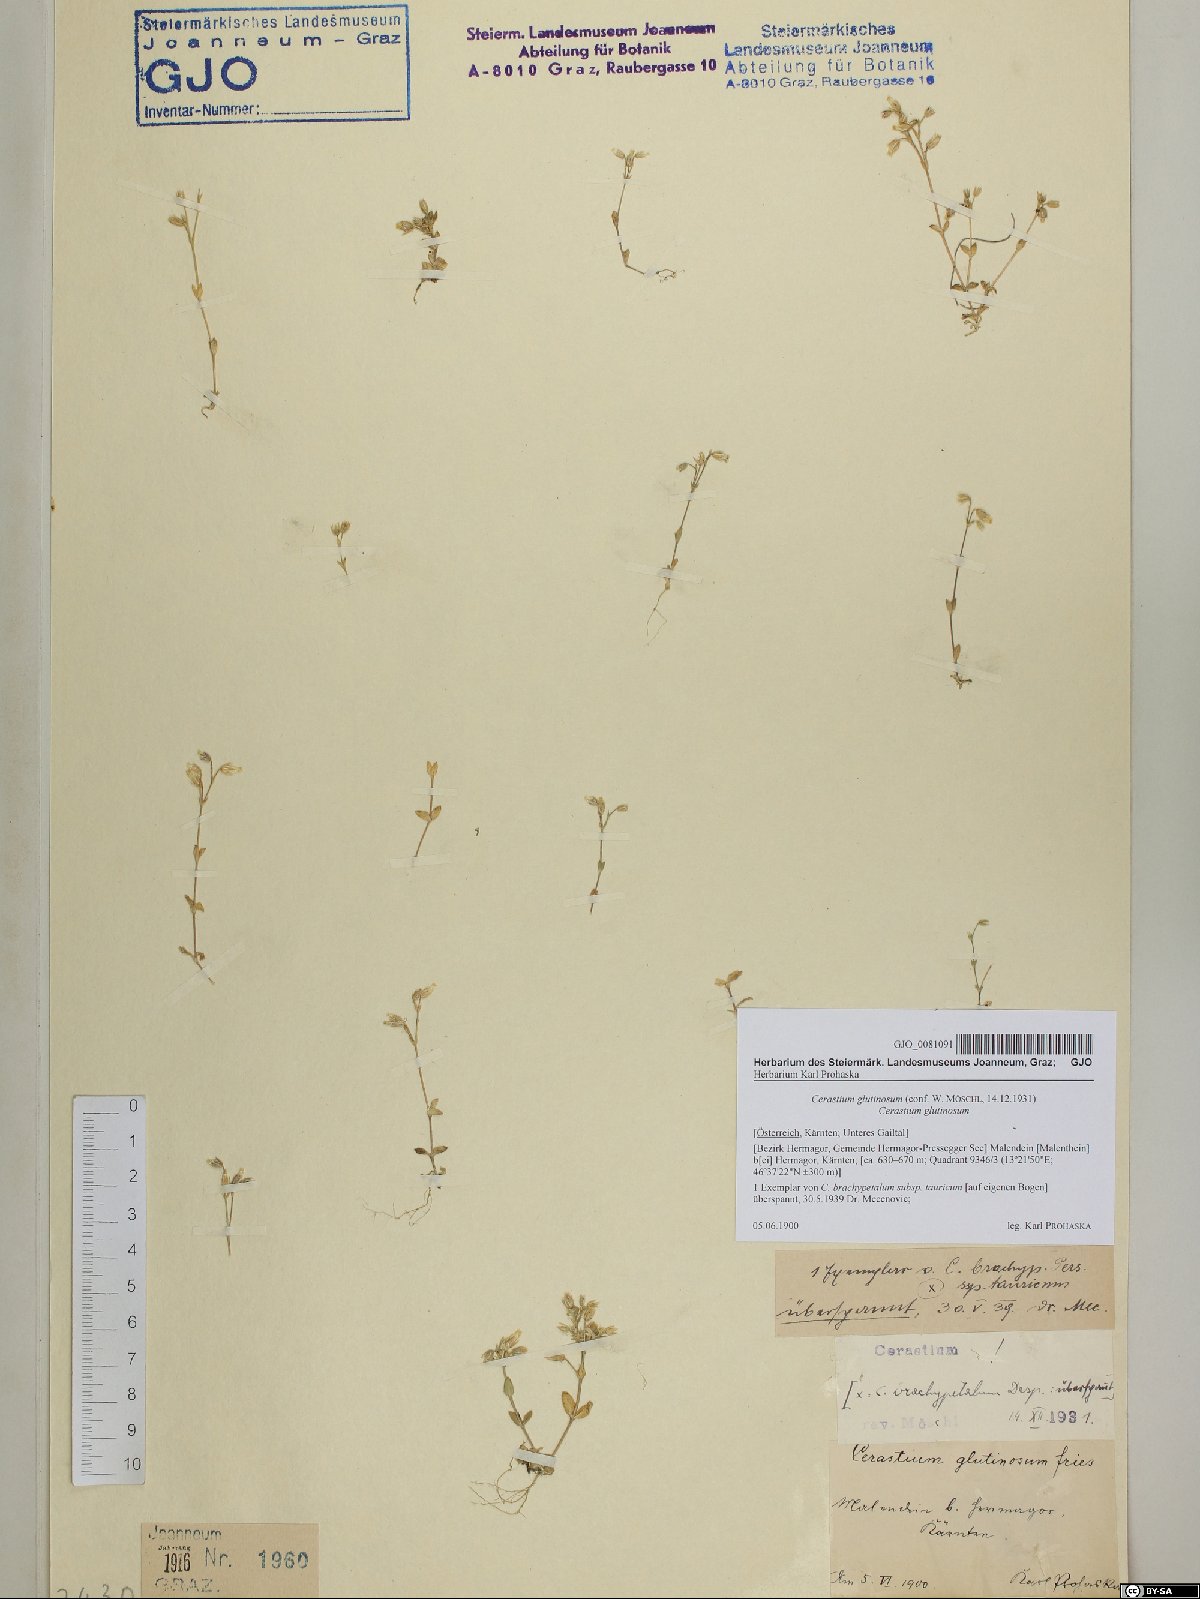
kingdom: Plantae
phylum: Tracheophyta
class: Magnoliopsida
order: Caryophyllales
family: Caryophyllaceae
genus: Cerastium
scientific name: Cerastium glutinosum
